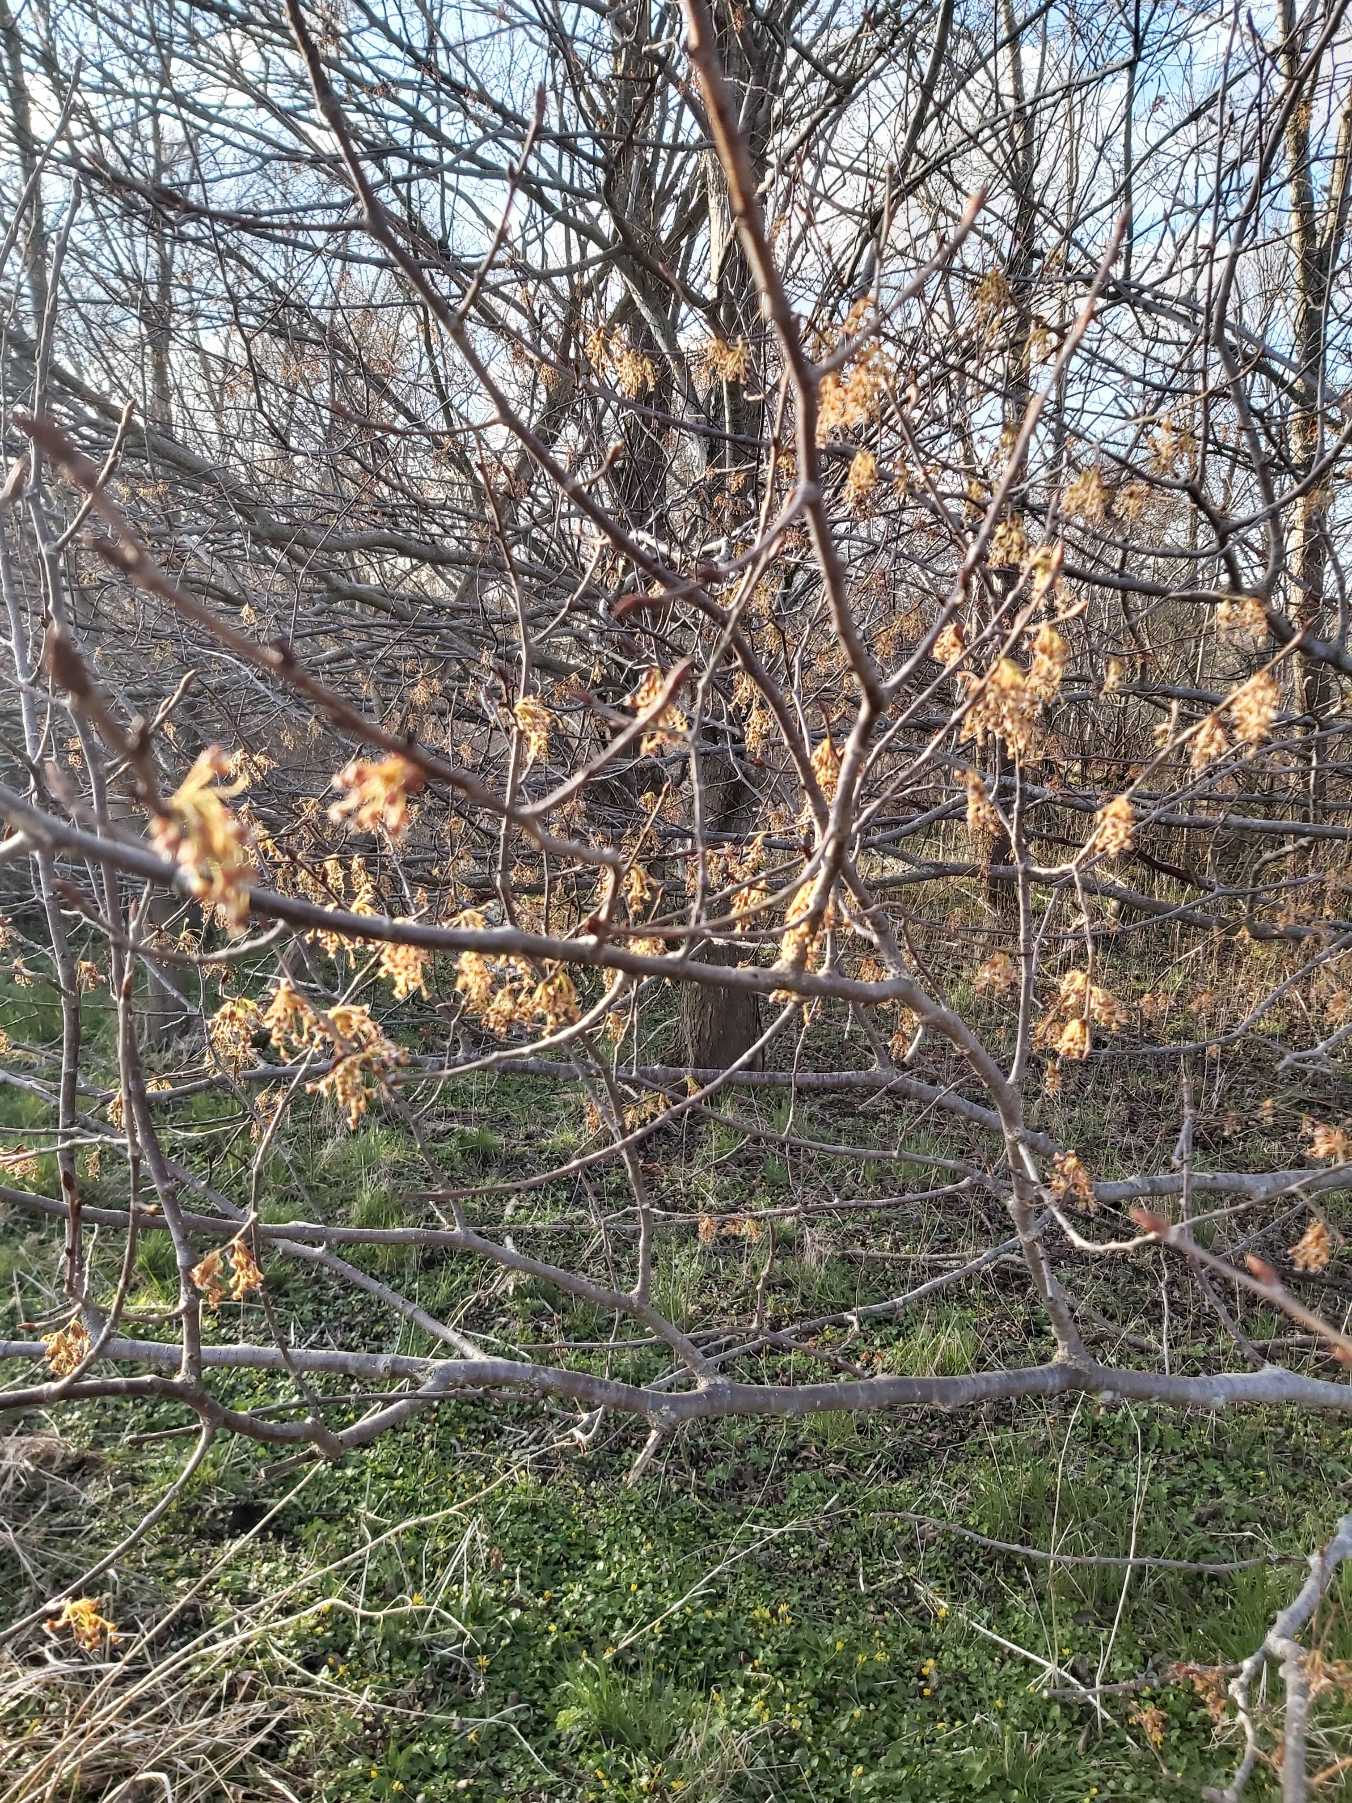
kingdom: Plantae
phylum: Tracheophyta
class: Magnoliopsida
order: Rosales
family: Ulmaceae
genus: Ulmus
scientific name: Ulmus laevis
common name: Skærm-elm
